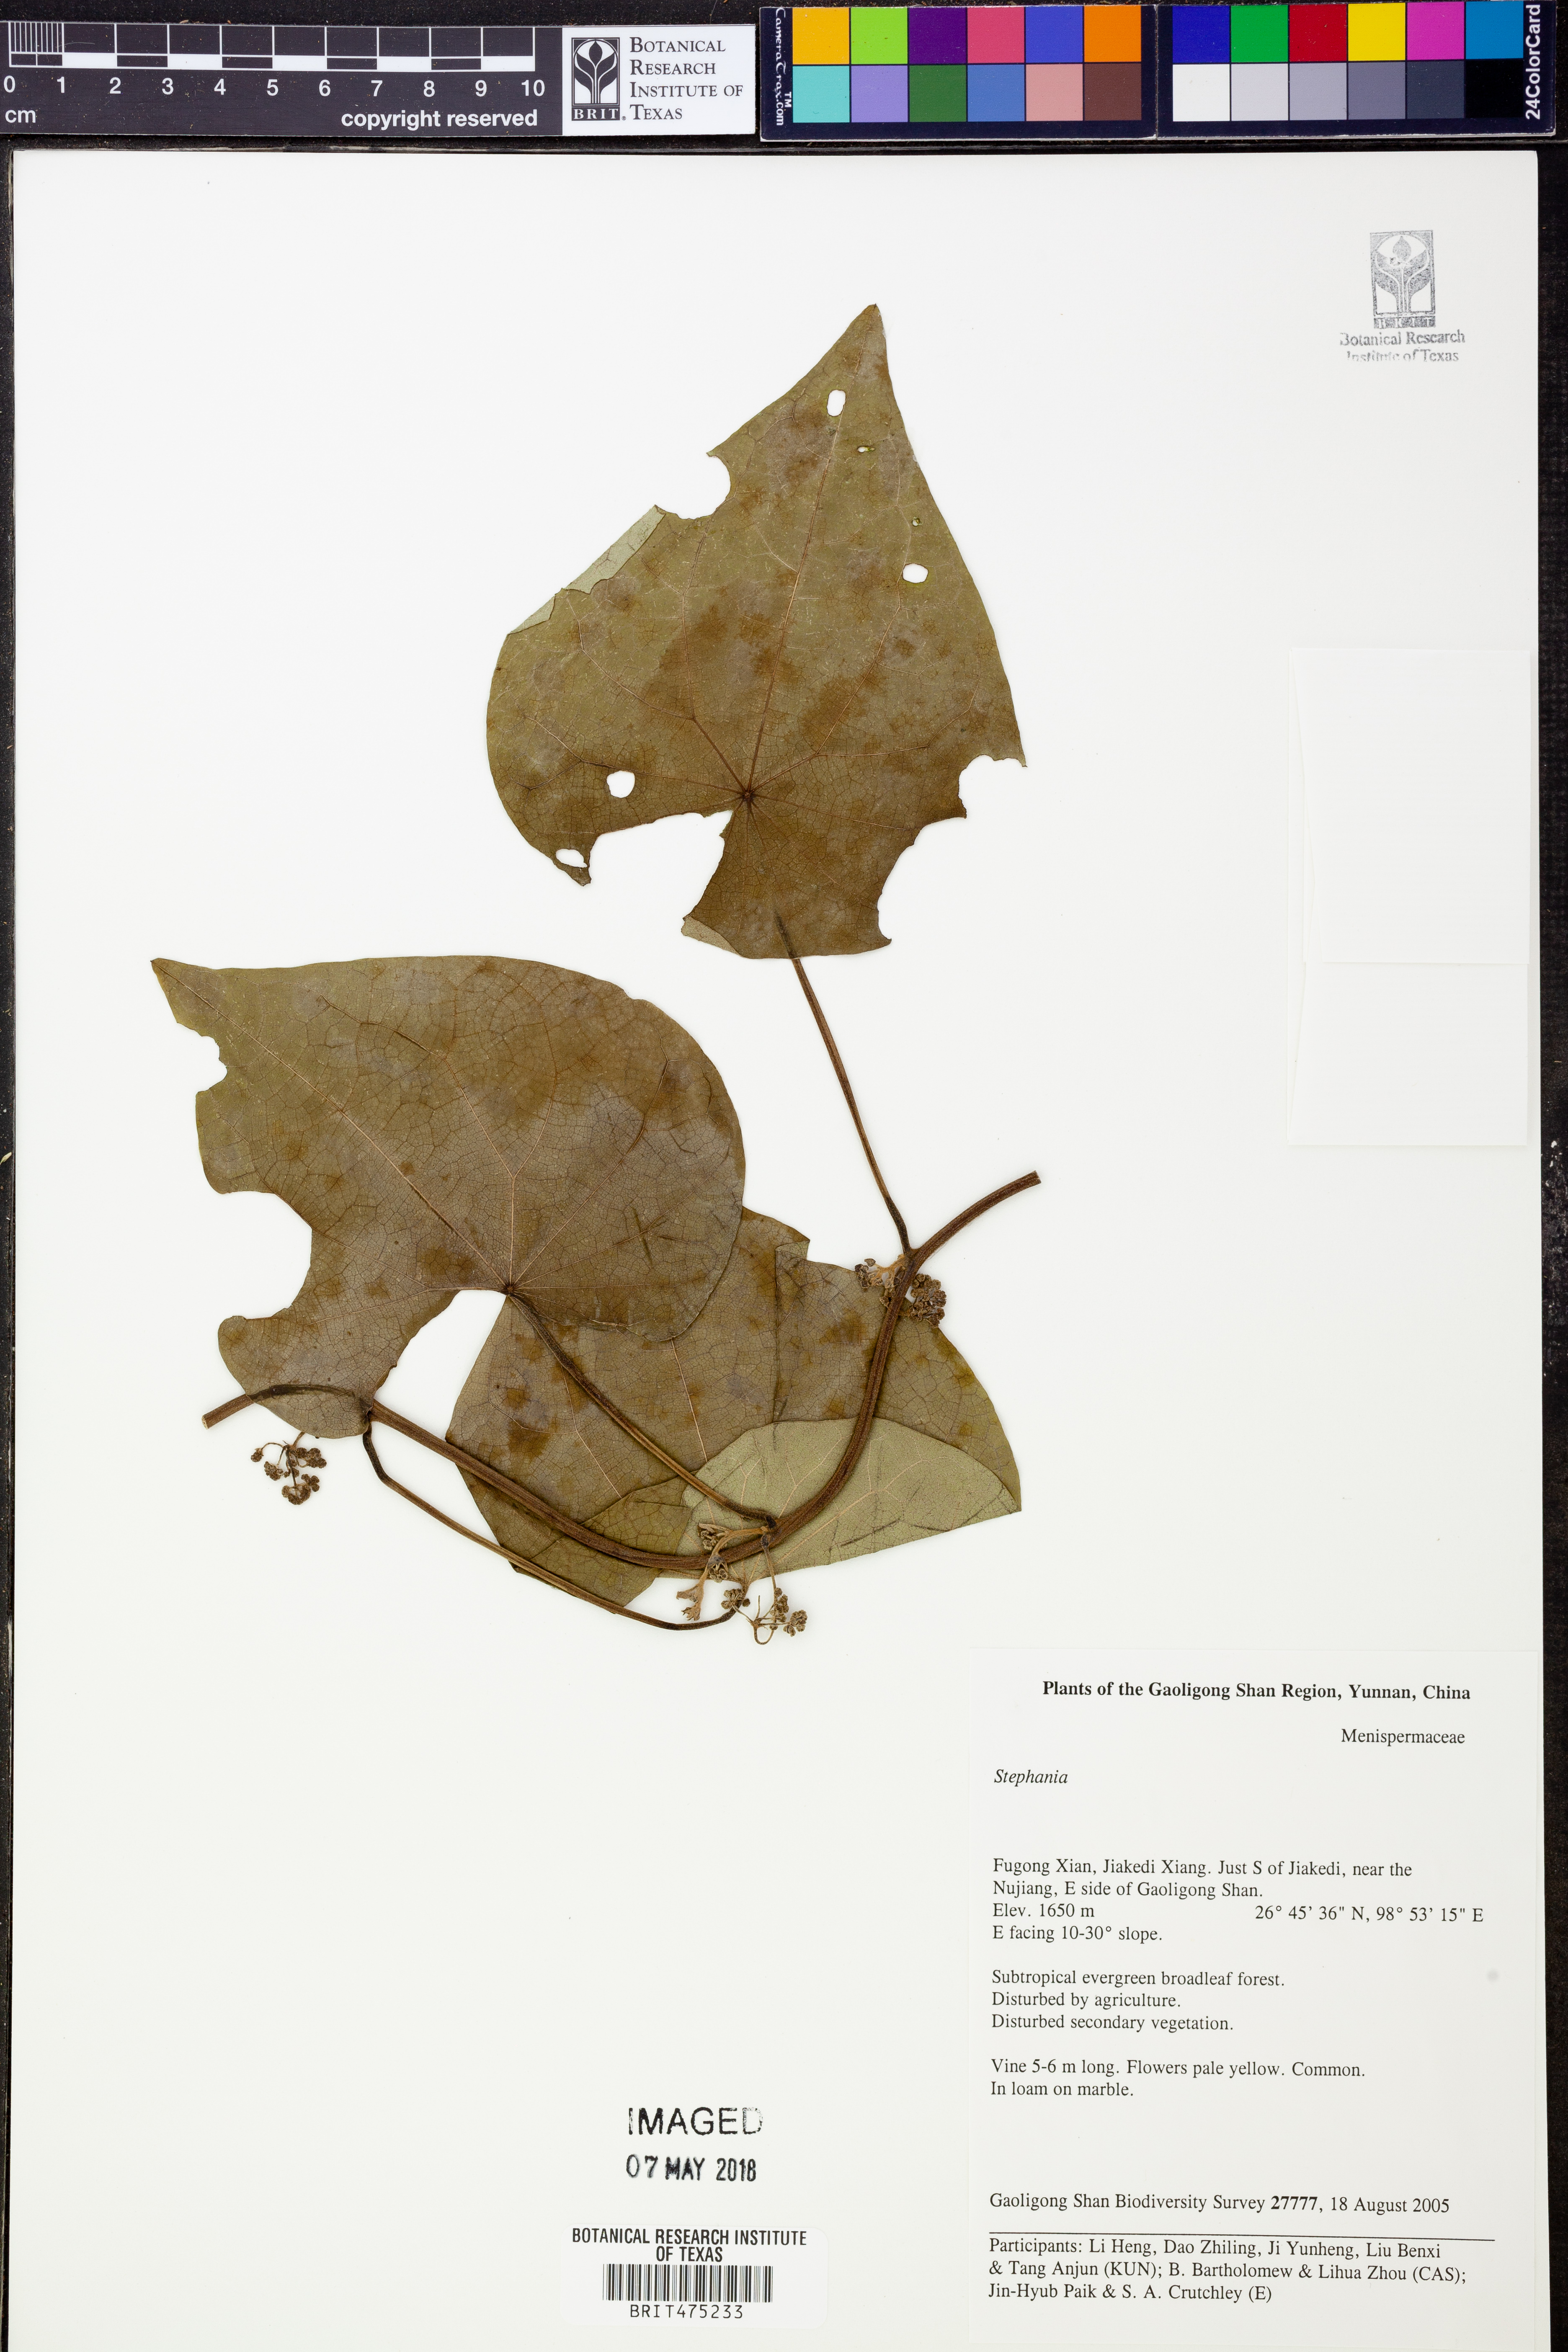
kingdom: Plantae
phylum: Tracheophyta
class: Magnoliopsida
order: Ranunculales
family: Menispermaceae
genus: Stephania
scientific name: Stephania
